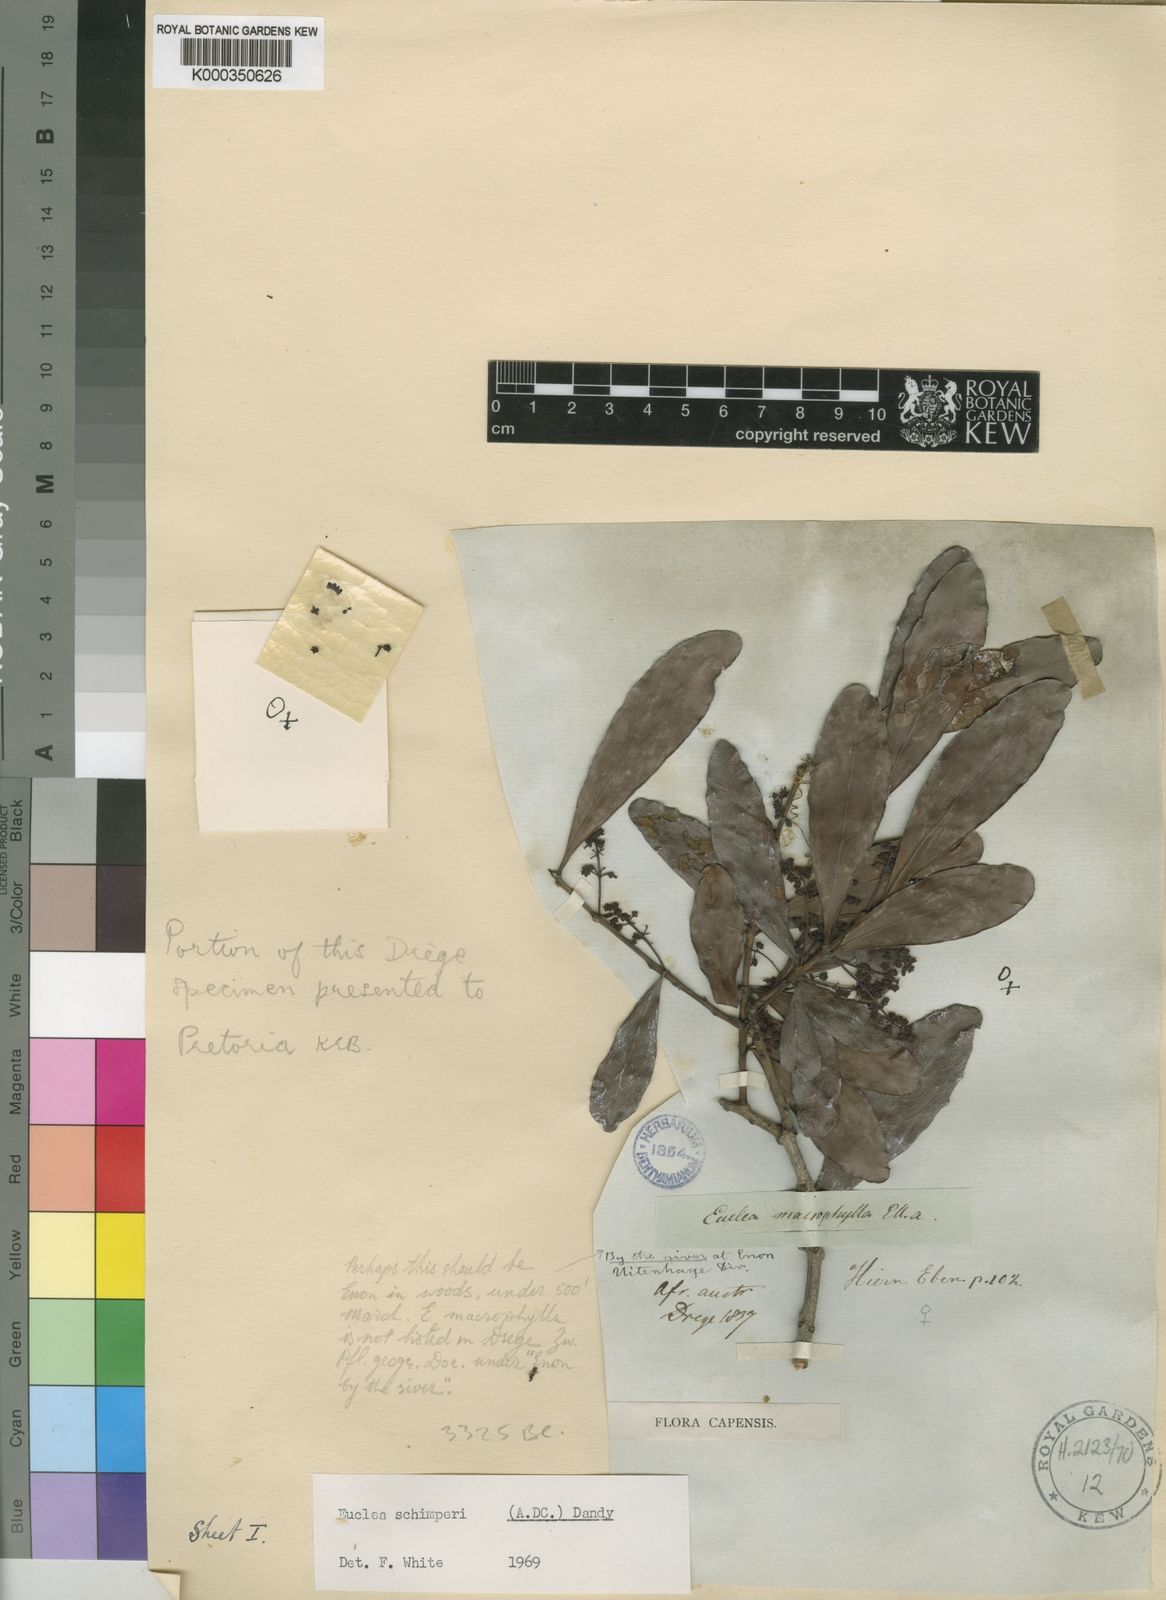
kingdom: Plantae
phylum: Tracheophyta
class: Magnoliopsida
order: Ericales
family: Ebenaceae
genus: Euclea
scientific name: Euclea racemosa
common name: Dune guarri
